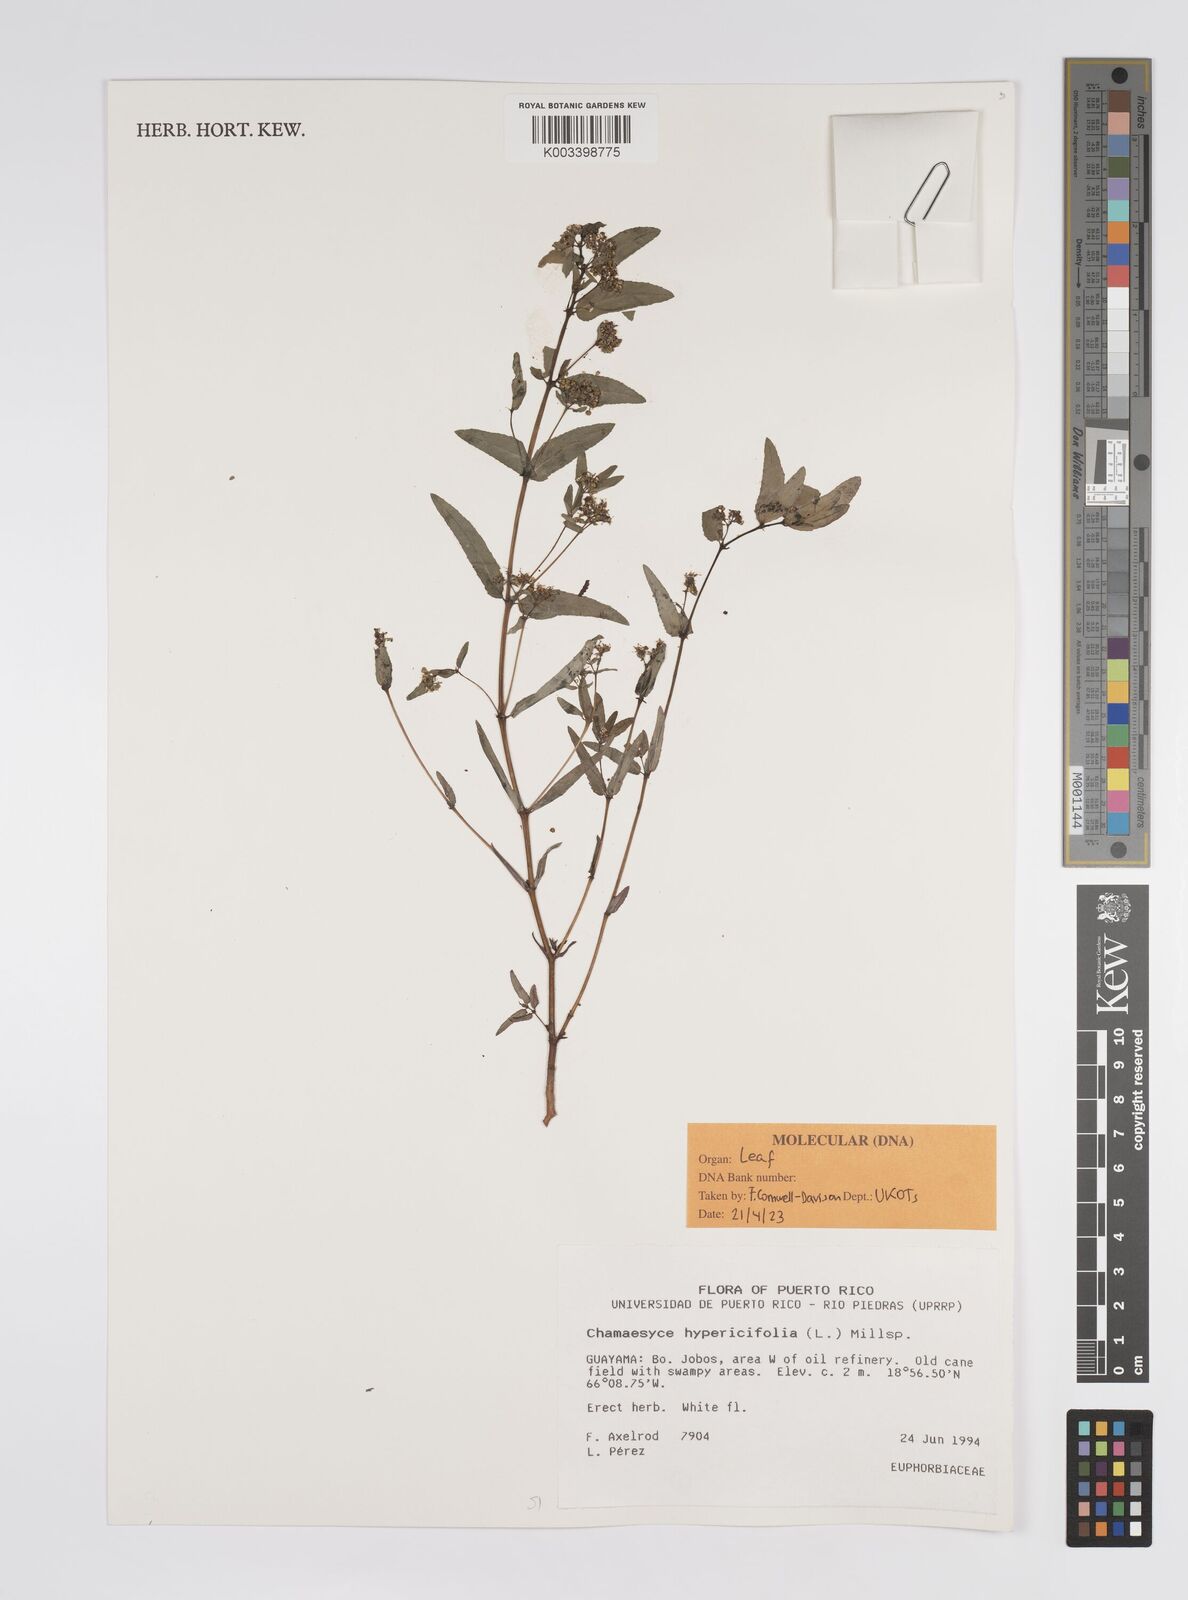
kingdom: Plantae
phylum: Tracheophyta
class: Magnoliopsida
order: Malpighiales
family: Euphorbiaceae
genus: Euphorbia
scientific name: Euphorbia hypericifolia
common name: Graceful sandmat
